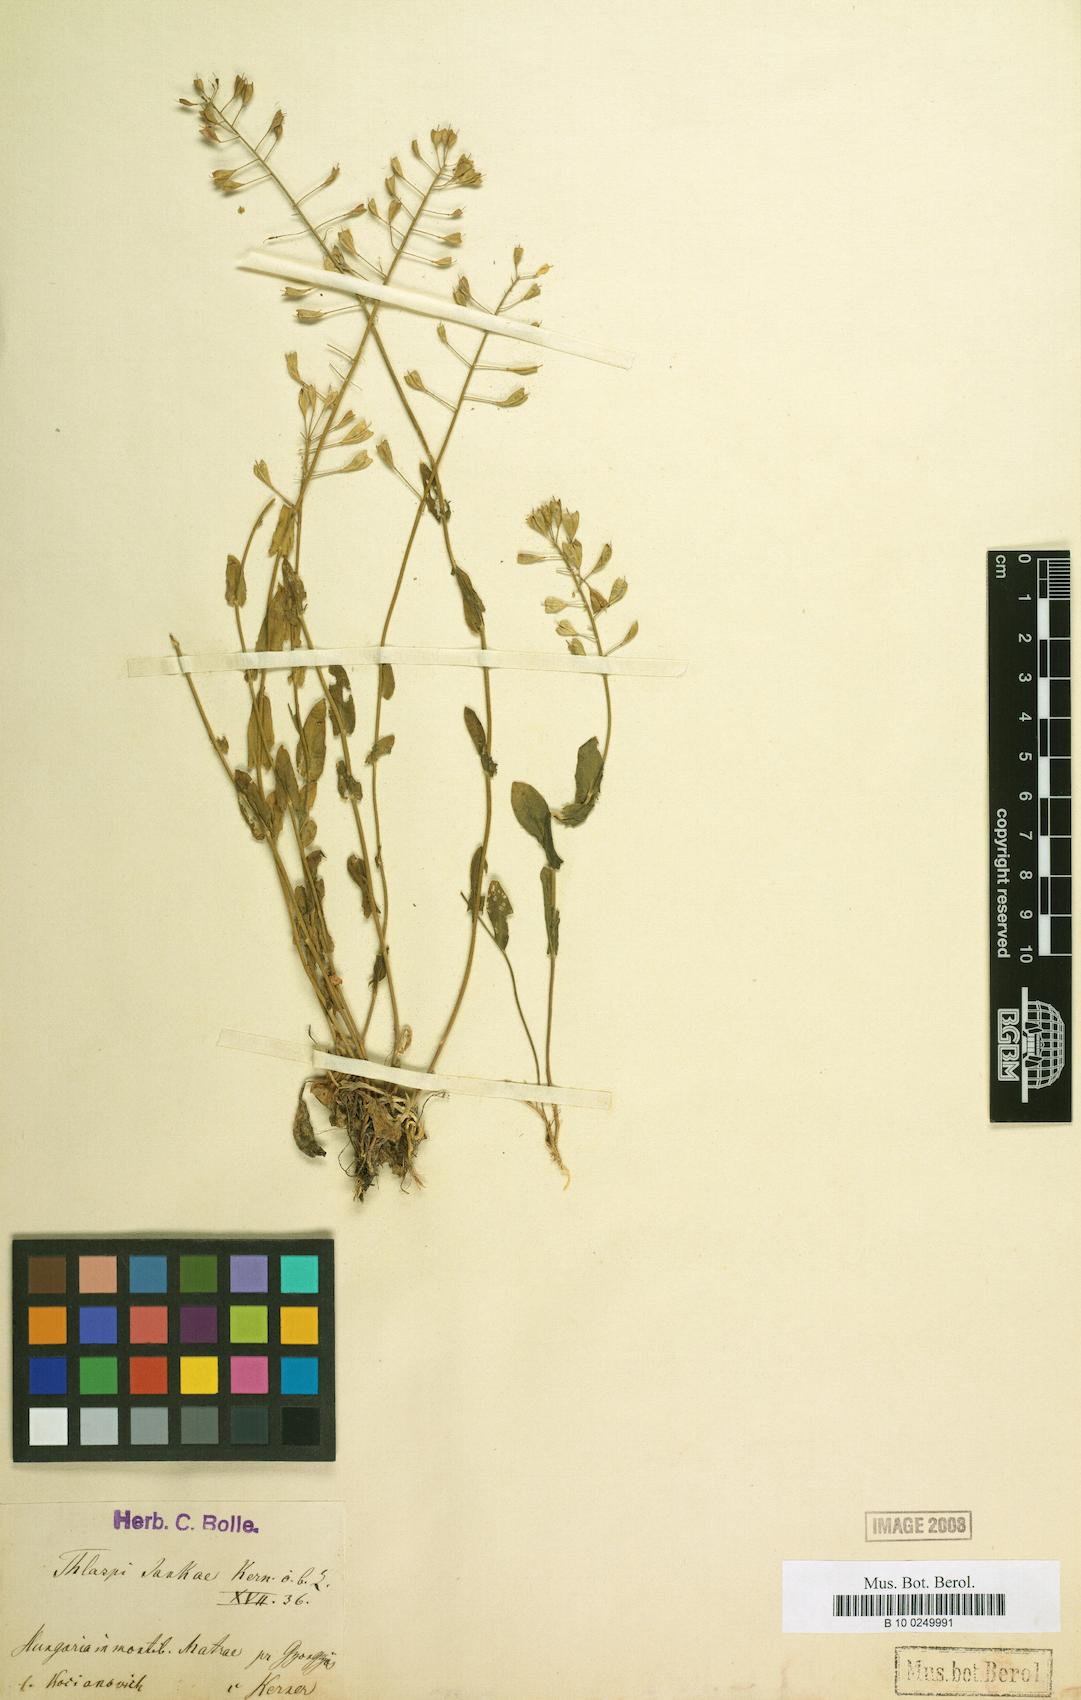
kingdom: Plantae
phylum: Tracheophyta
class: Magnoliopsida
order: Brassicales
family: Brassicaceae
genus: Noccaea
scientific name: Noccaea jankae
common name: Slovak penny-cress
